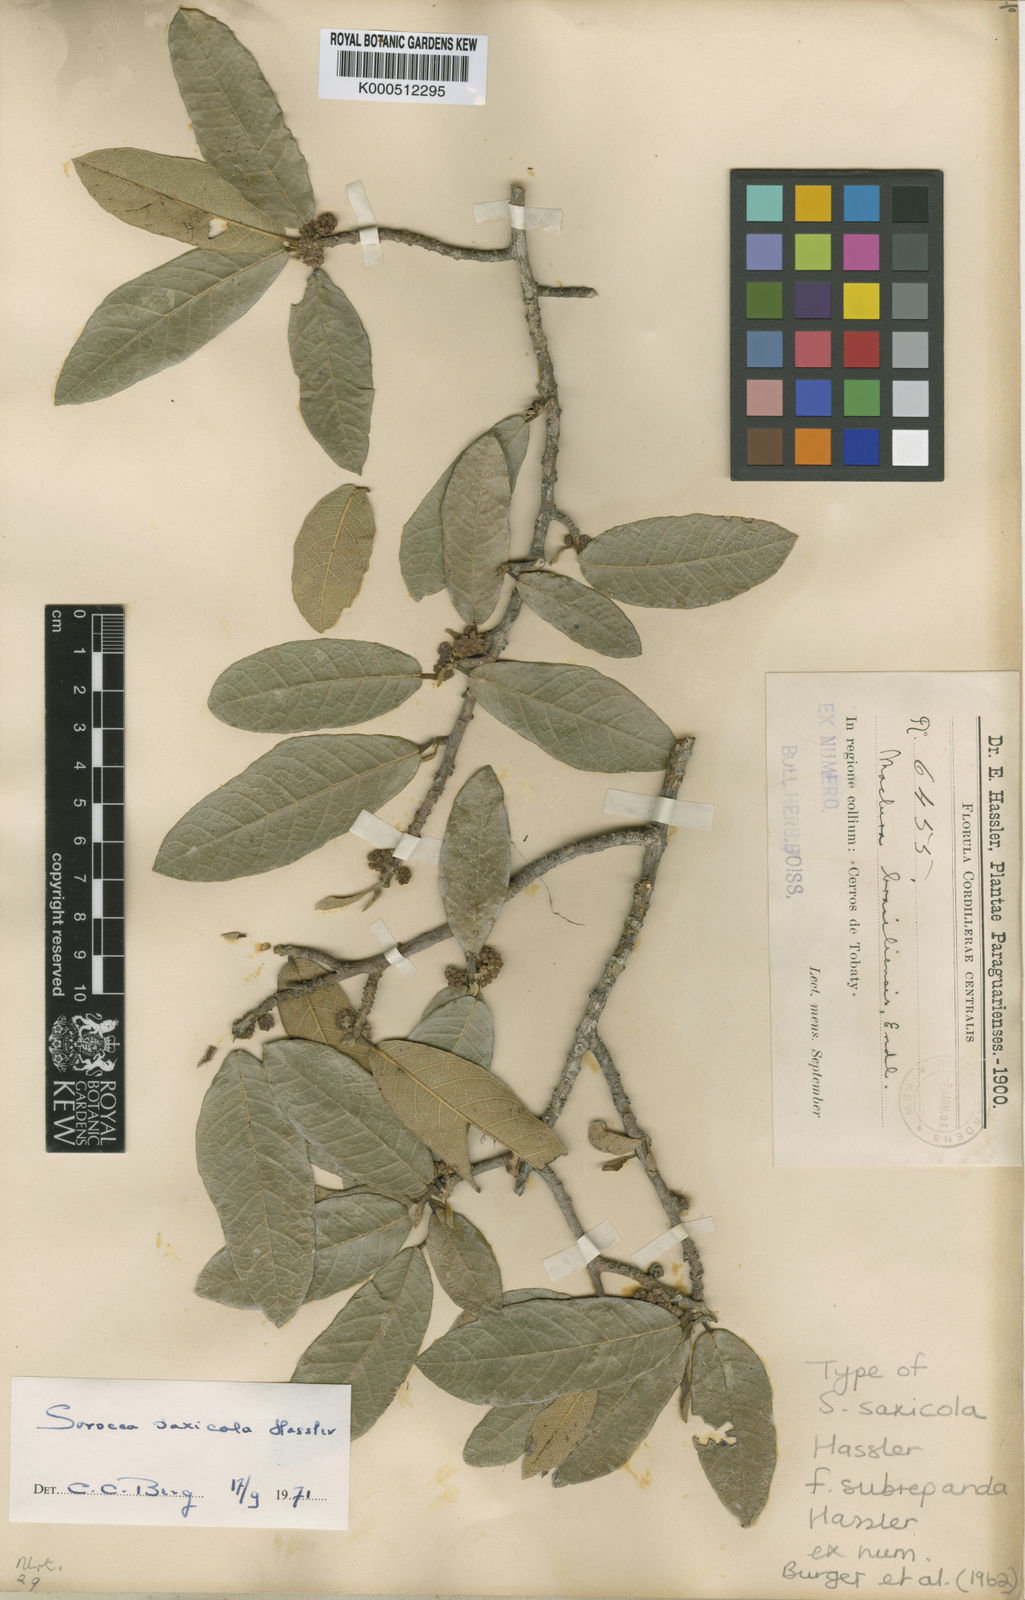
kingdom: Plantae
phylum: Tracheophyta
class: Magnoliopsida
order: Rosales
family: Moraceae
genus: Sorocea
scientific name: Sorocea sprucei
